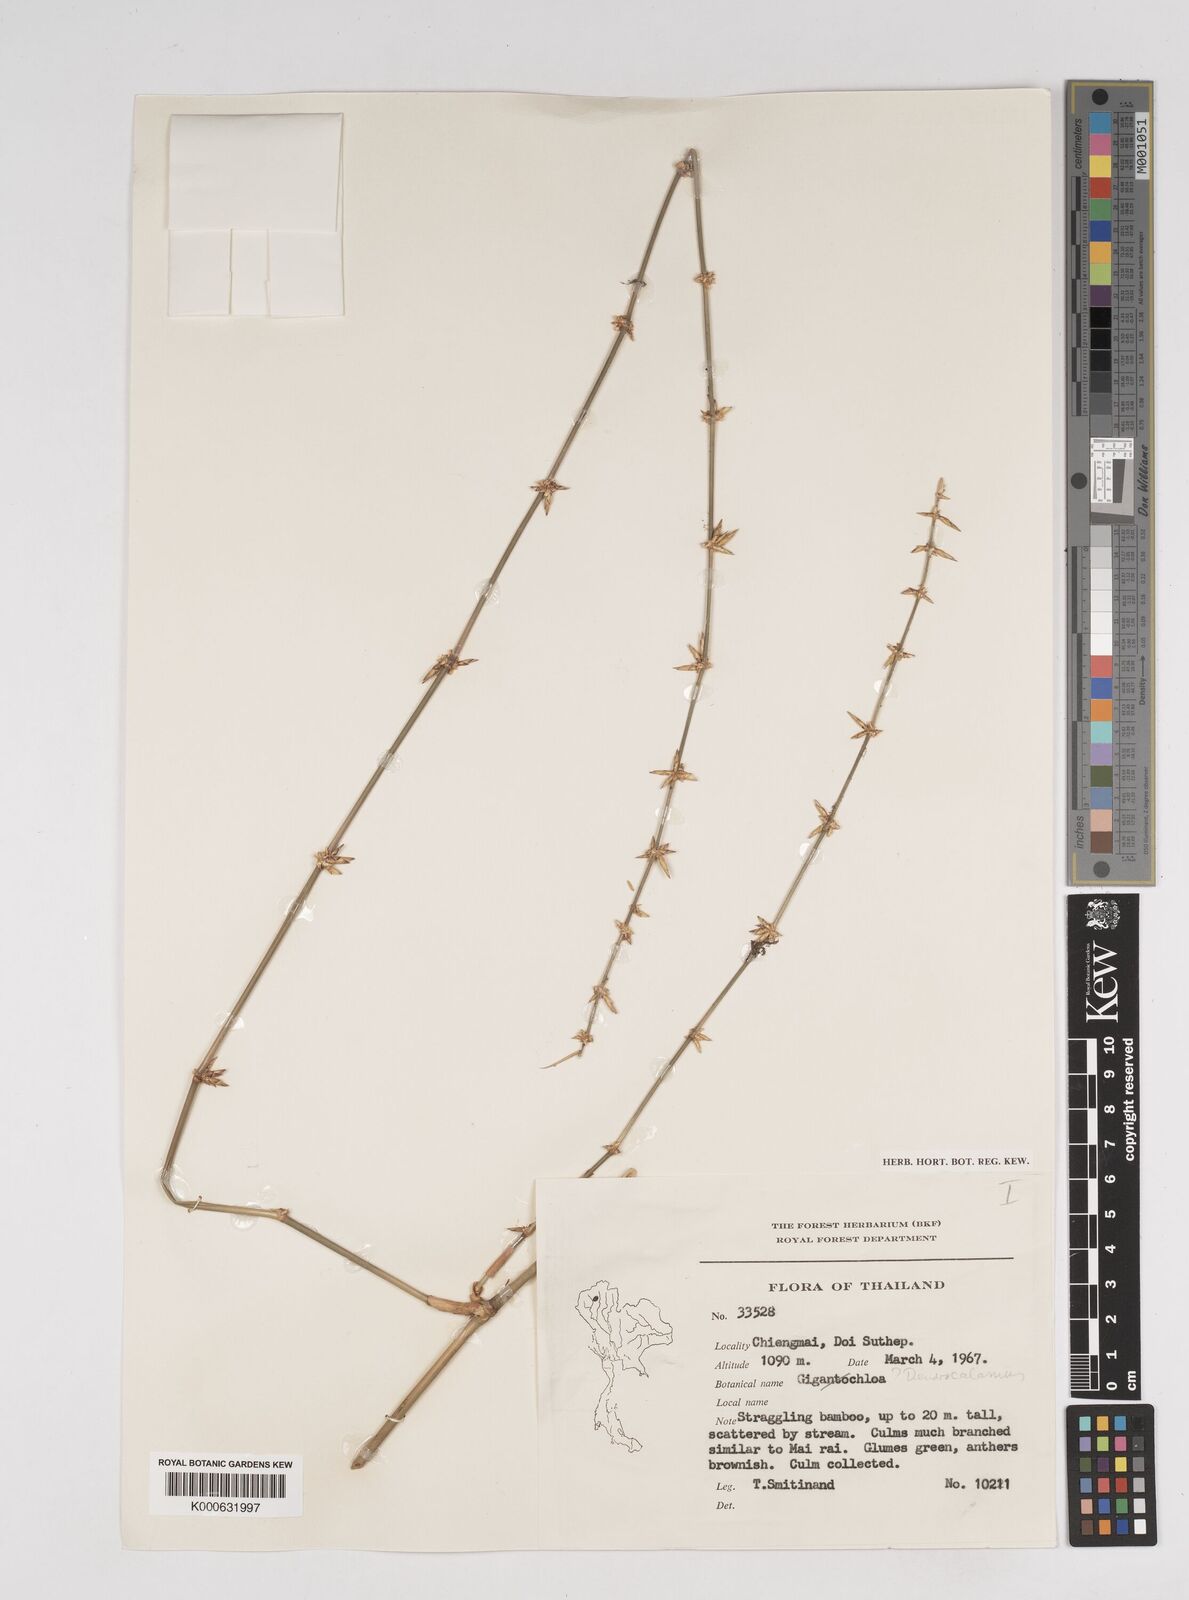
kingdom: Plantae
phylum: Tracheophyta
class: Liliopsida
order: Poales
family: Poaceae
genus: Dendrocalamus
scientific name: Dendrocalamus
